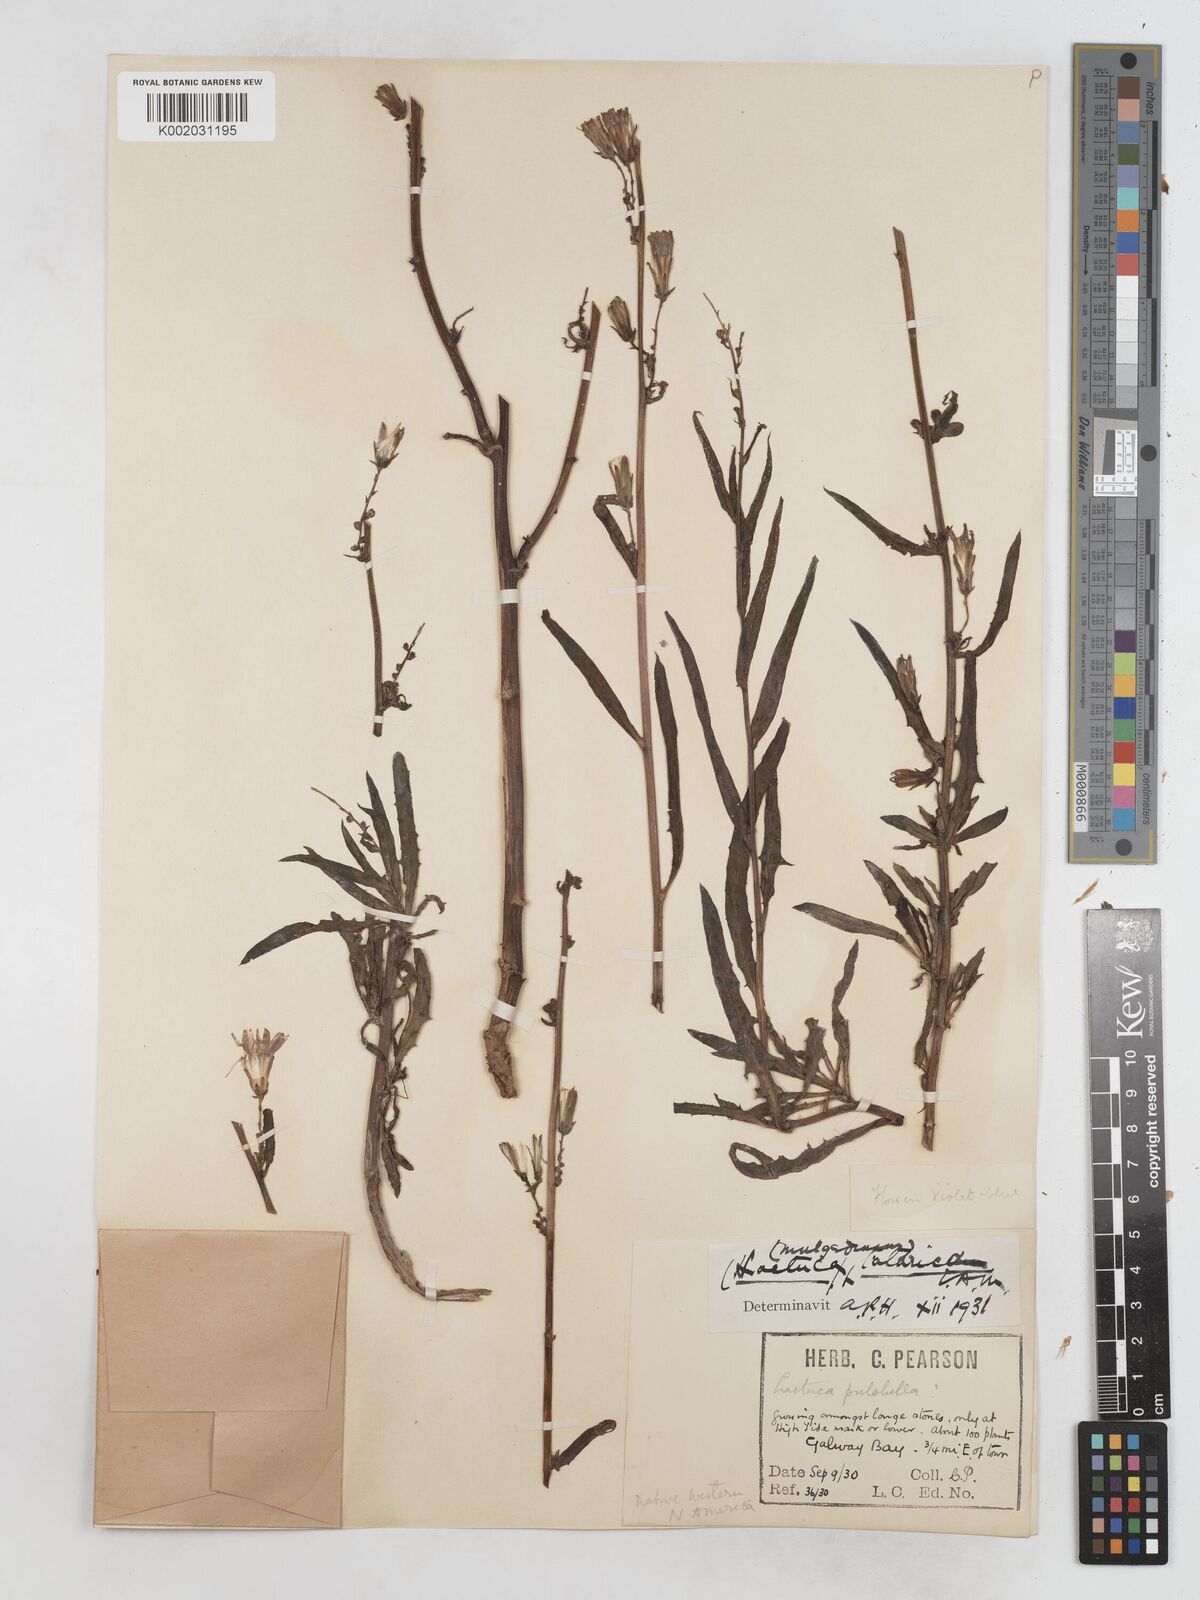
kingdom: Plantae
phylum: Tracheophyta
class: Magnoliopsida
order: Asterales
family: Asteraceae
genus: Lactuca
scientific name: Lactuca tatarica
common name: Blue lettuce
